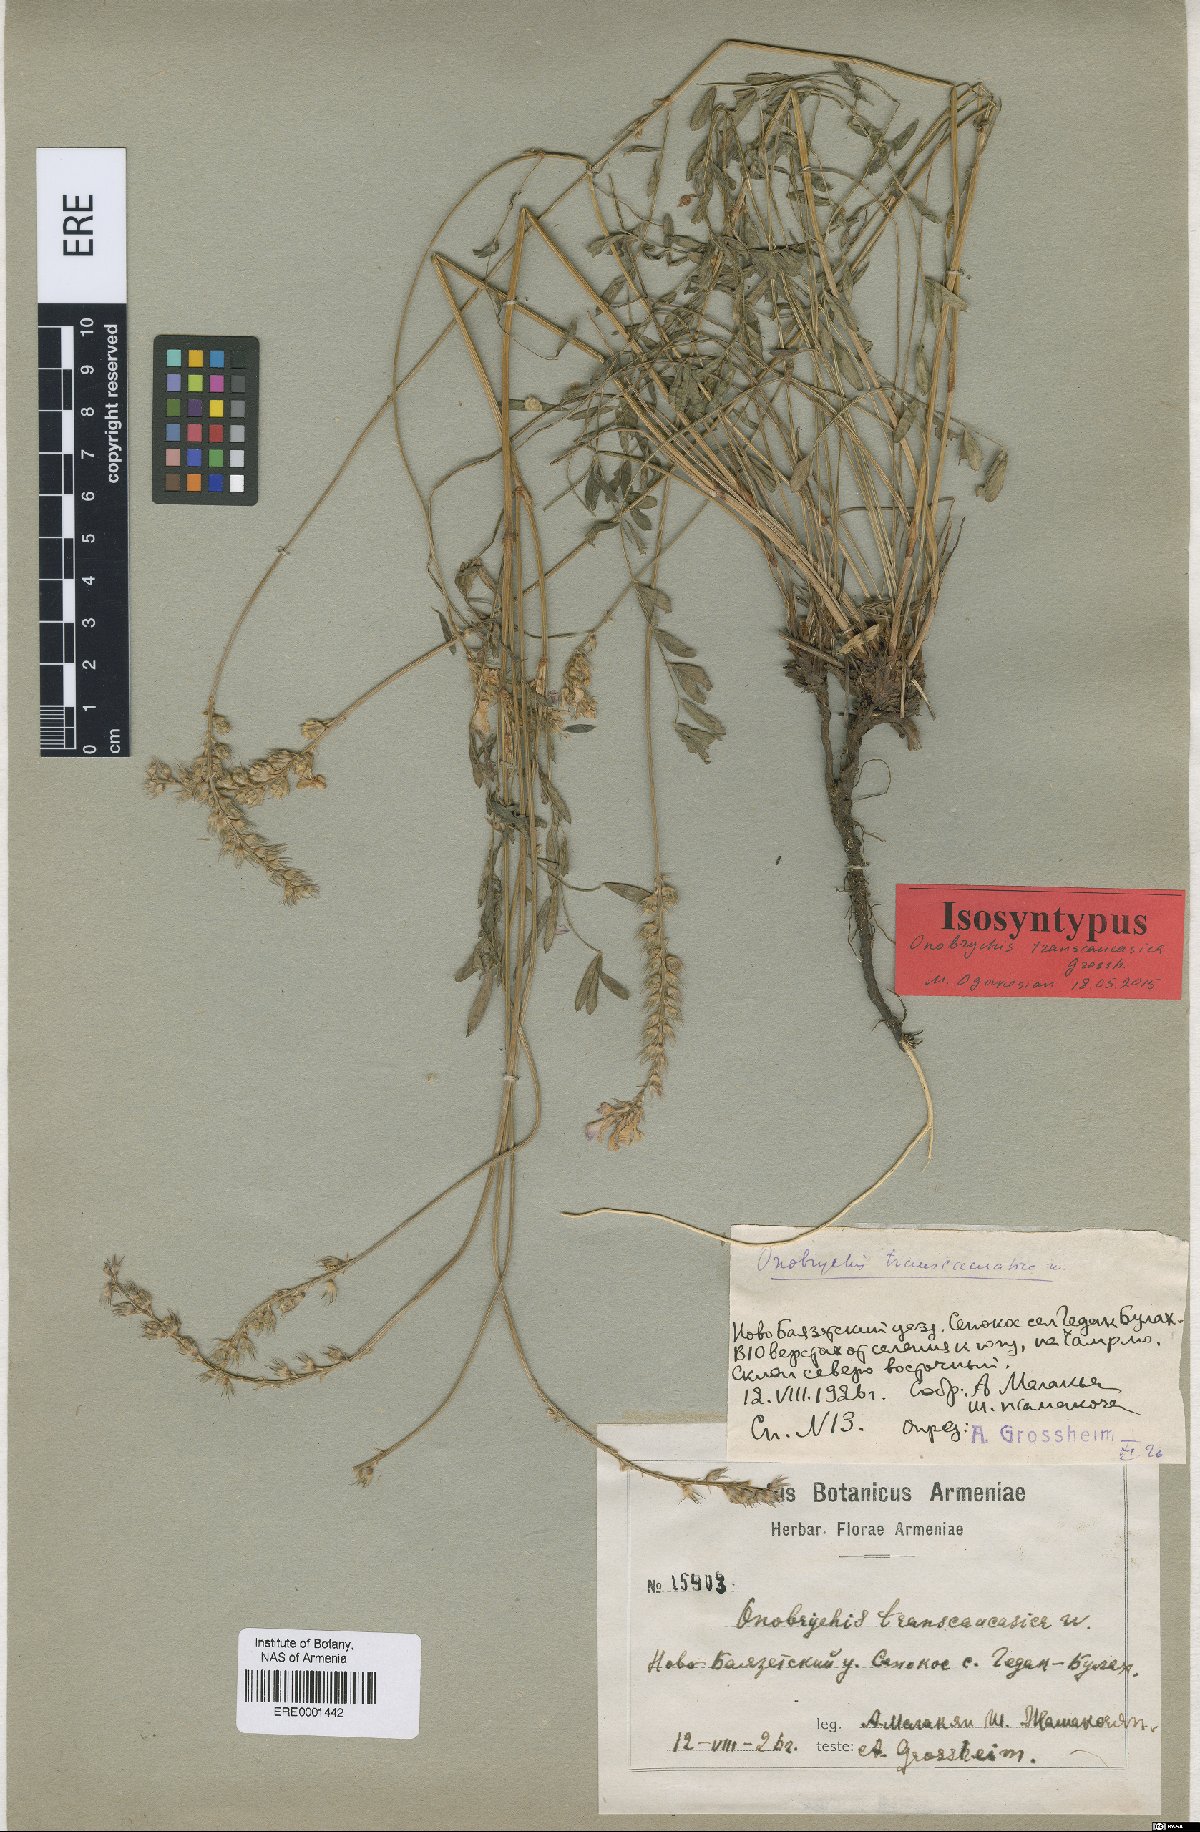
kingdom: Plantae
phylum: Tracheophyta
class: Magnoliopsida
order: Fabales
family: Fabaceae
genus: Onobrychis
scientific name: Onobrychis transcaucasica
